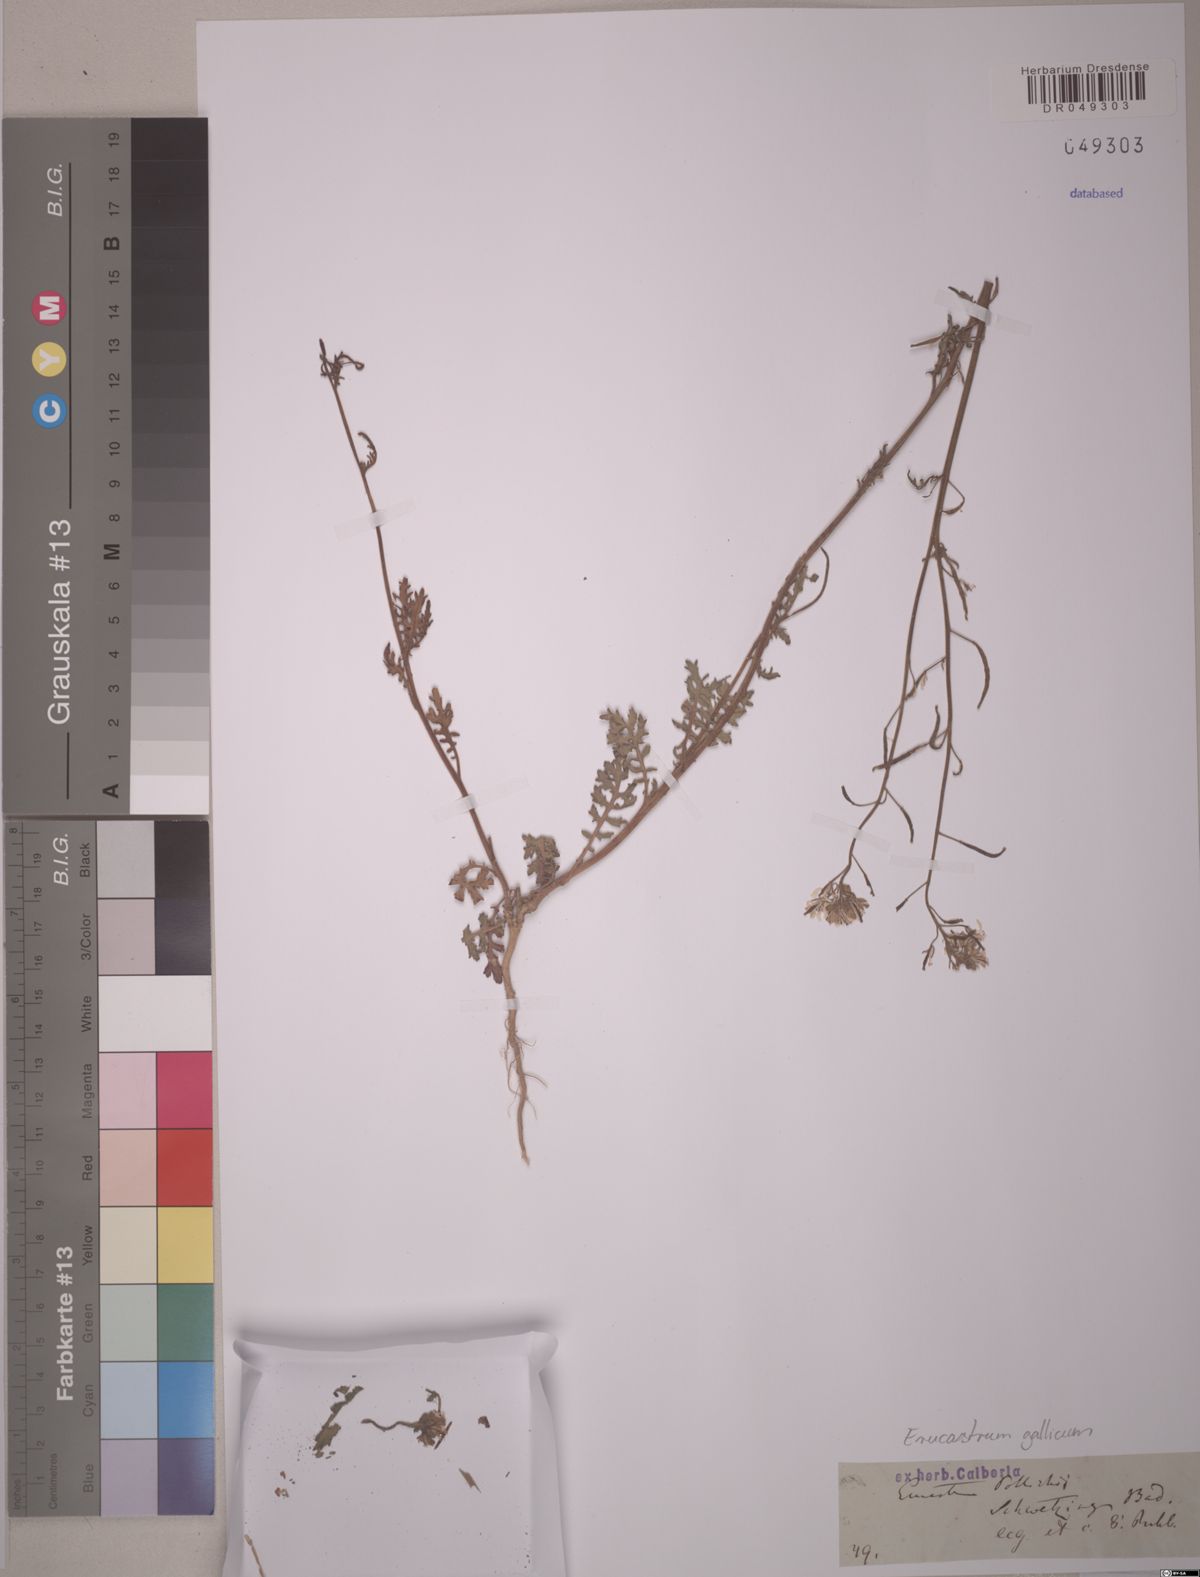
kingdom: Plantae
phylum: Tracheophyta
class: Magnoliopsida
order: Brassicales
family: Brassicaceae
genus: Erucastrum
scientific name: Erucastrum gallicum
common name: Hairy rocket
